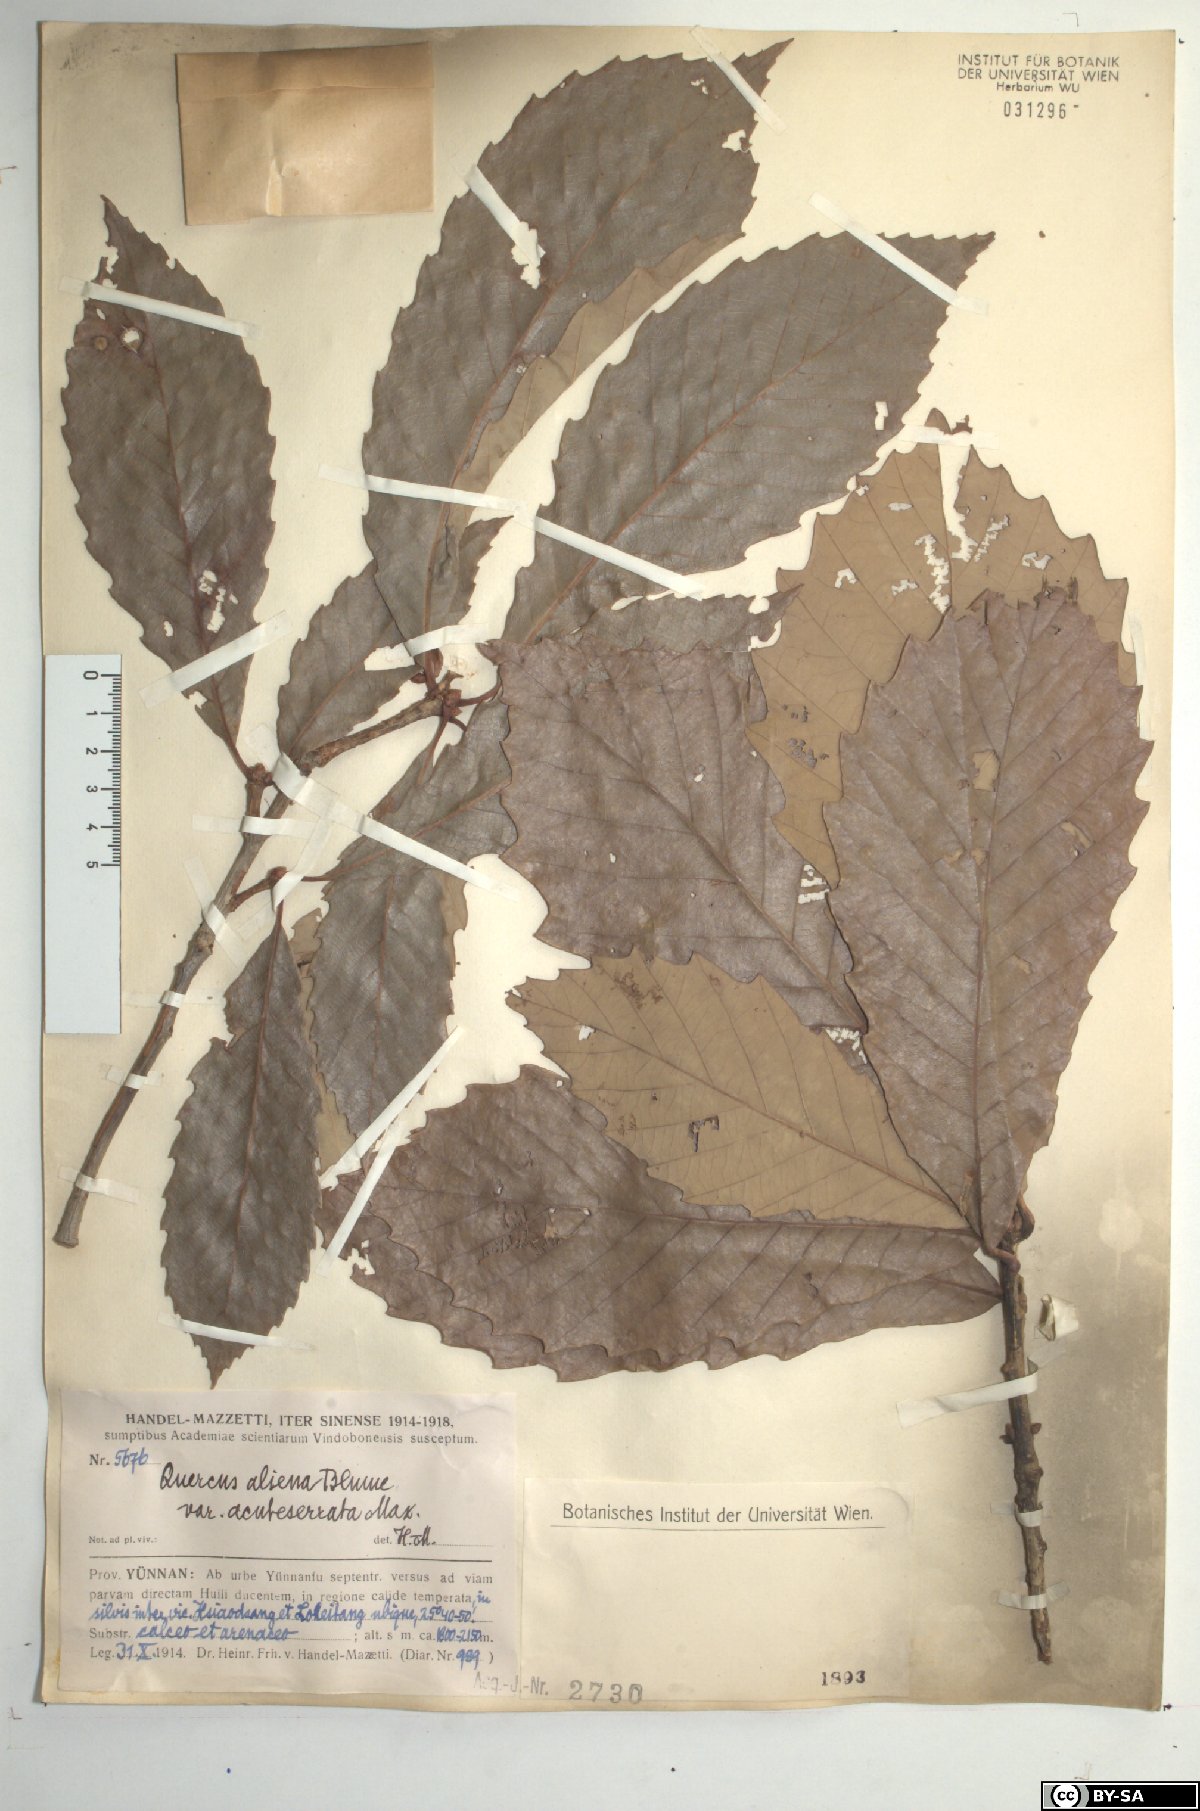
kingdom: Plantae
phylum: Tracheophyta
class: Magnoliopsida
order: Fagales
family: Fagaceae
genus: Quercus
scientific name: Quercus aliena
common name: Oriental white oak
